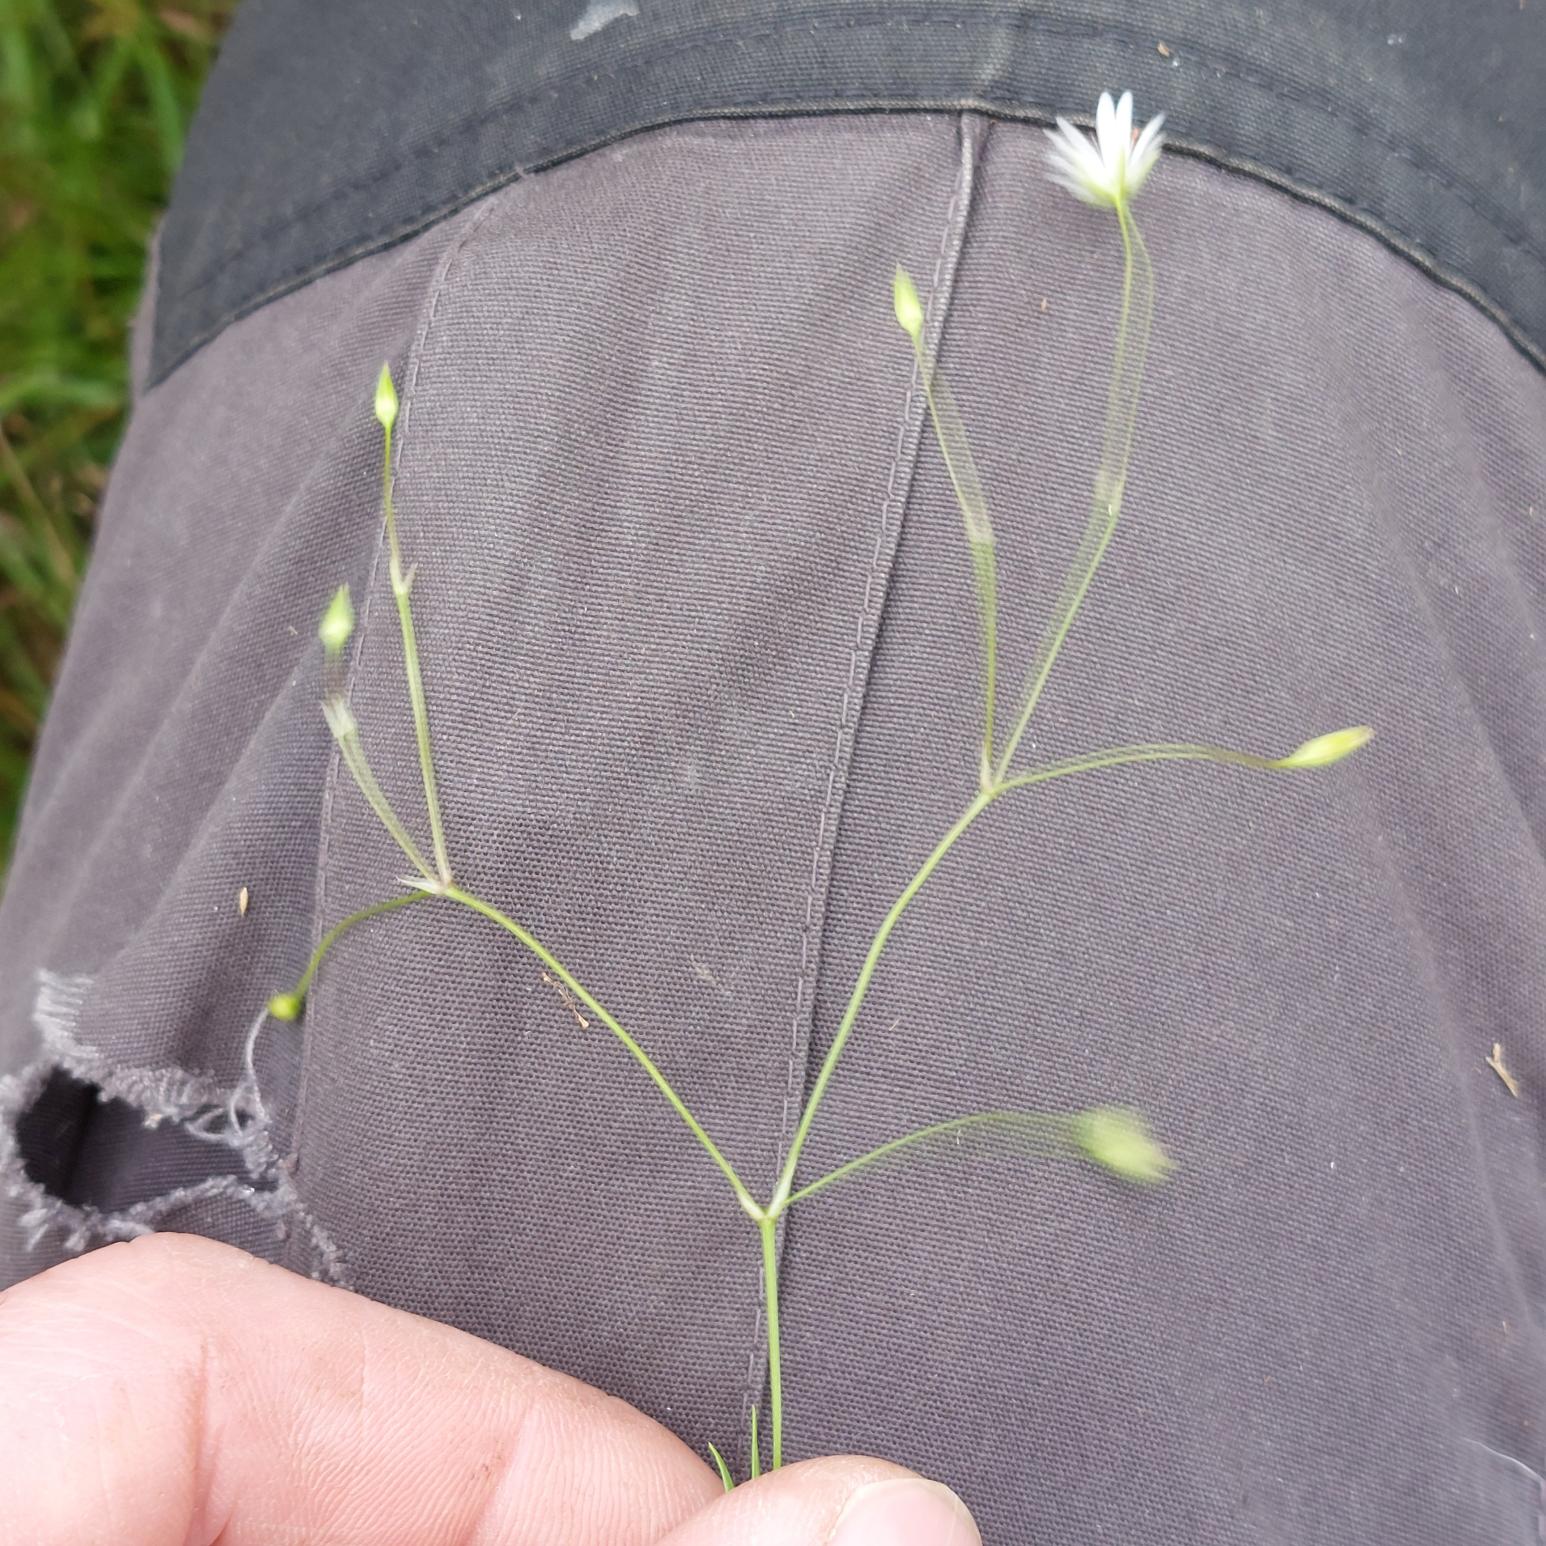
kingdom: Plantae
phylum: Tracheophyta
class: Magnoliopsida
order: Caryophyllales
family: Caryophyllaceae
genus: Stellaria
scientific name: Stellaria graminea
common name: Græsbladet fladstjerne
